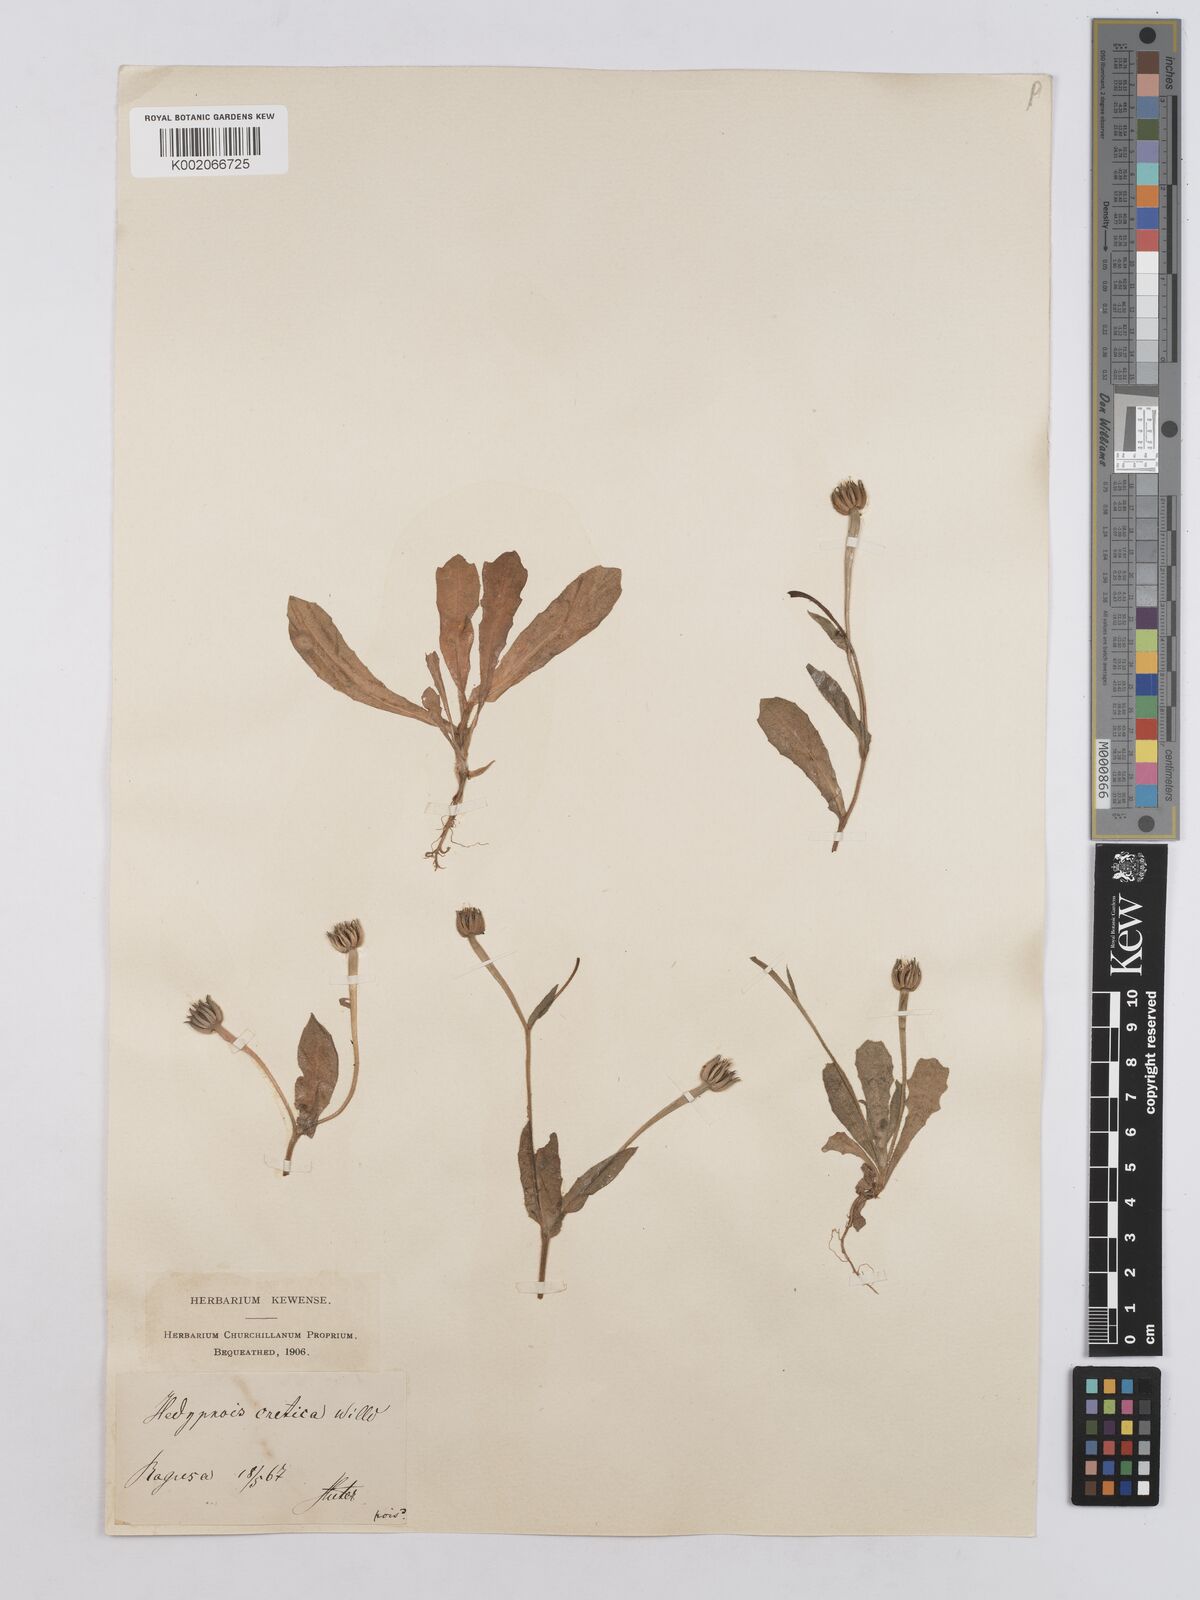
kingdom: Plantae
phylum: Tracheophyta
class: Magnoliopsida
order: Asterales
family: Asteraceae
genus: Hedypnois
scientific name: Hedypnois rhagadioloides
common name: Cretan weed
